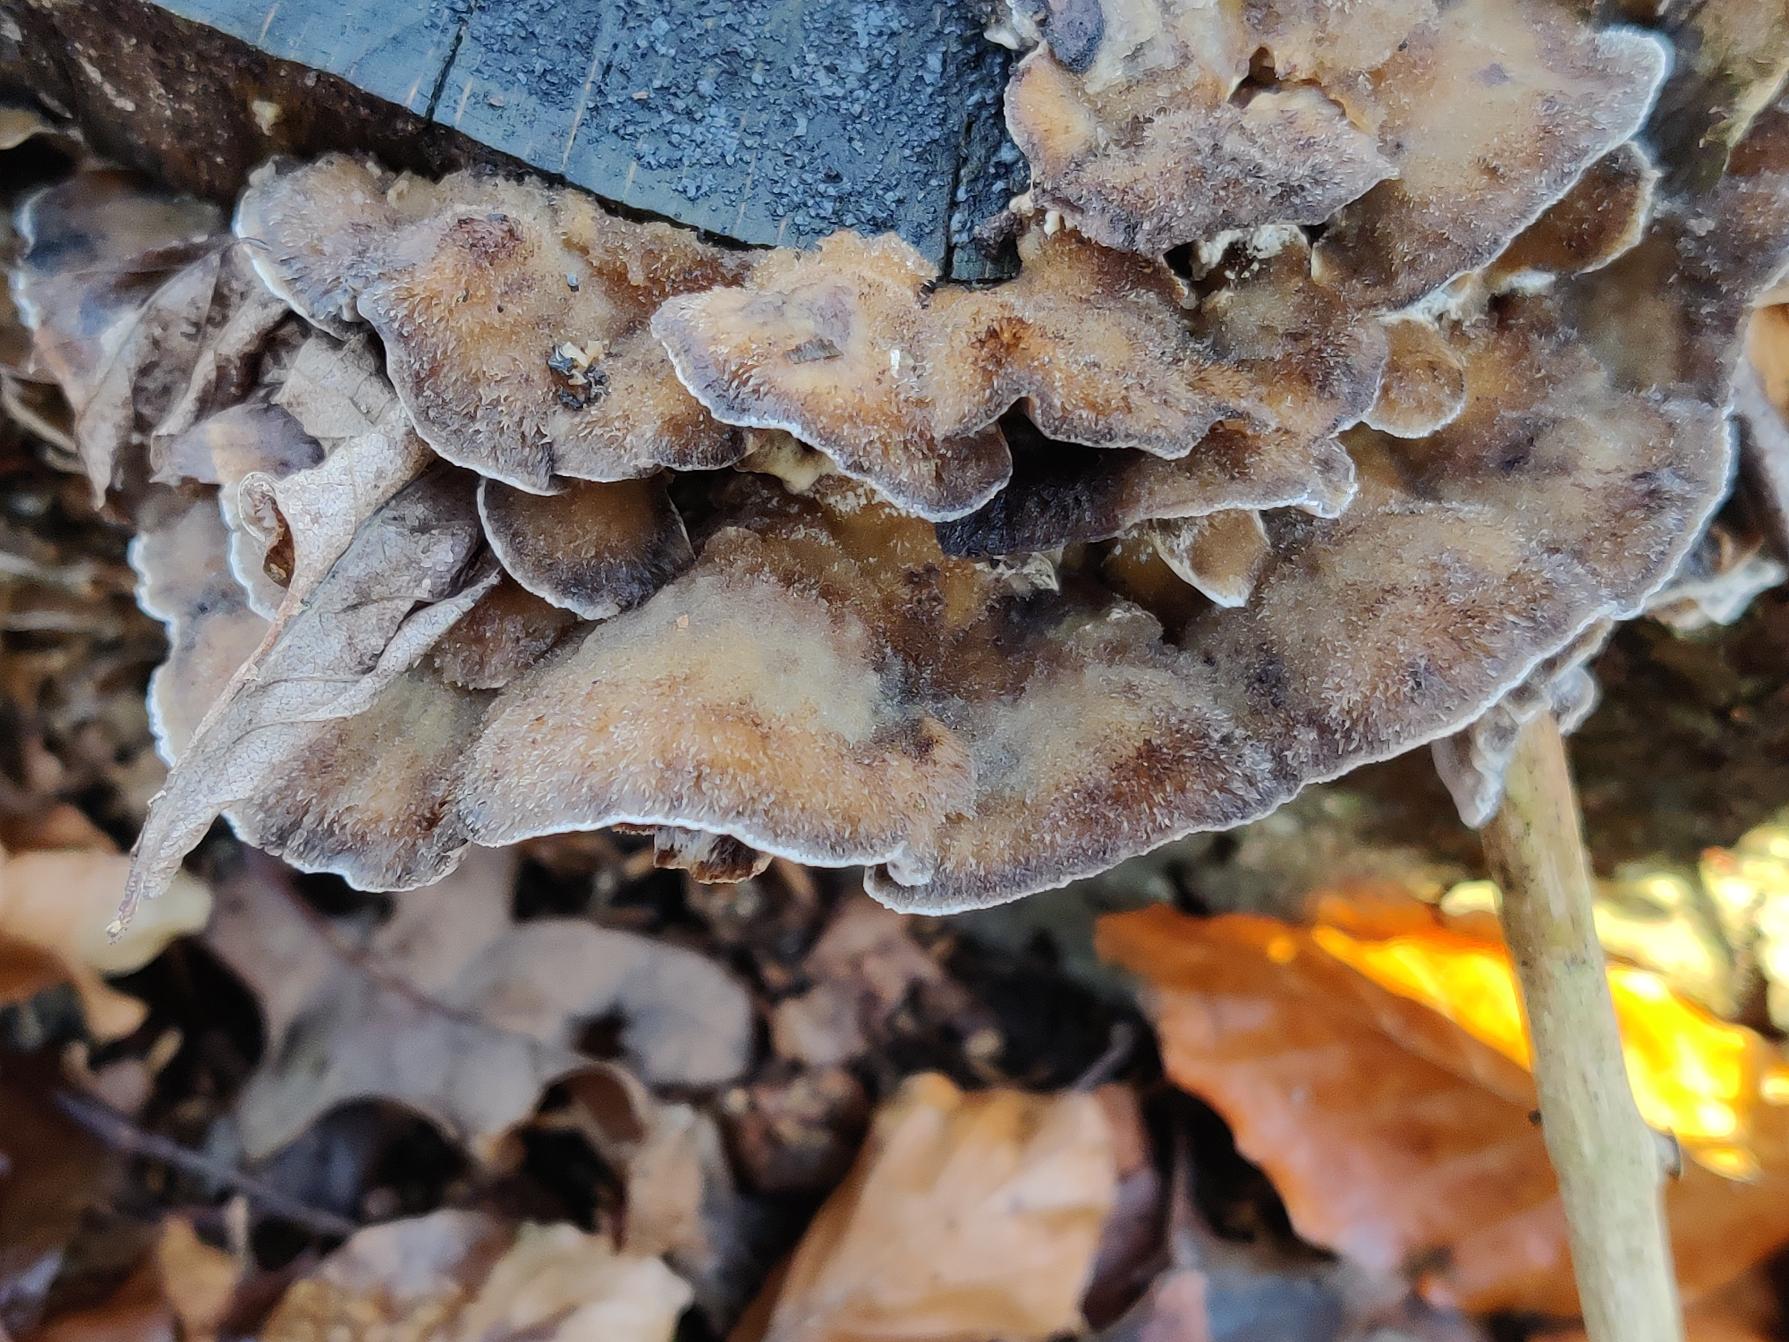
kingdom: Fungi
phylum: Basidiomycota
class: Agaricomycetes
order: Polyporales
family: Phanerochaetaceae
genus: Bjerkandera
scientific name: Bjerkandera adusta
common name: Sveden sodporesvamp
